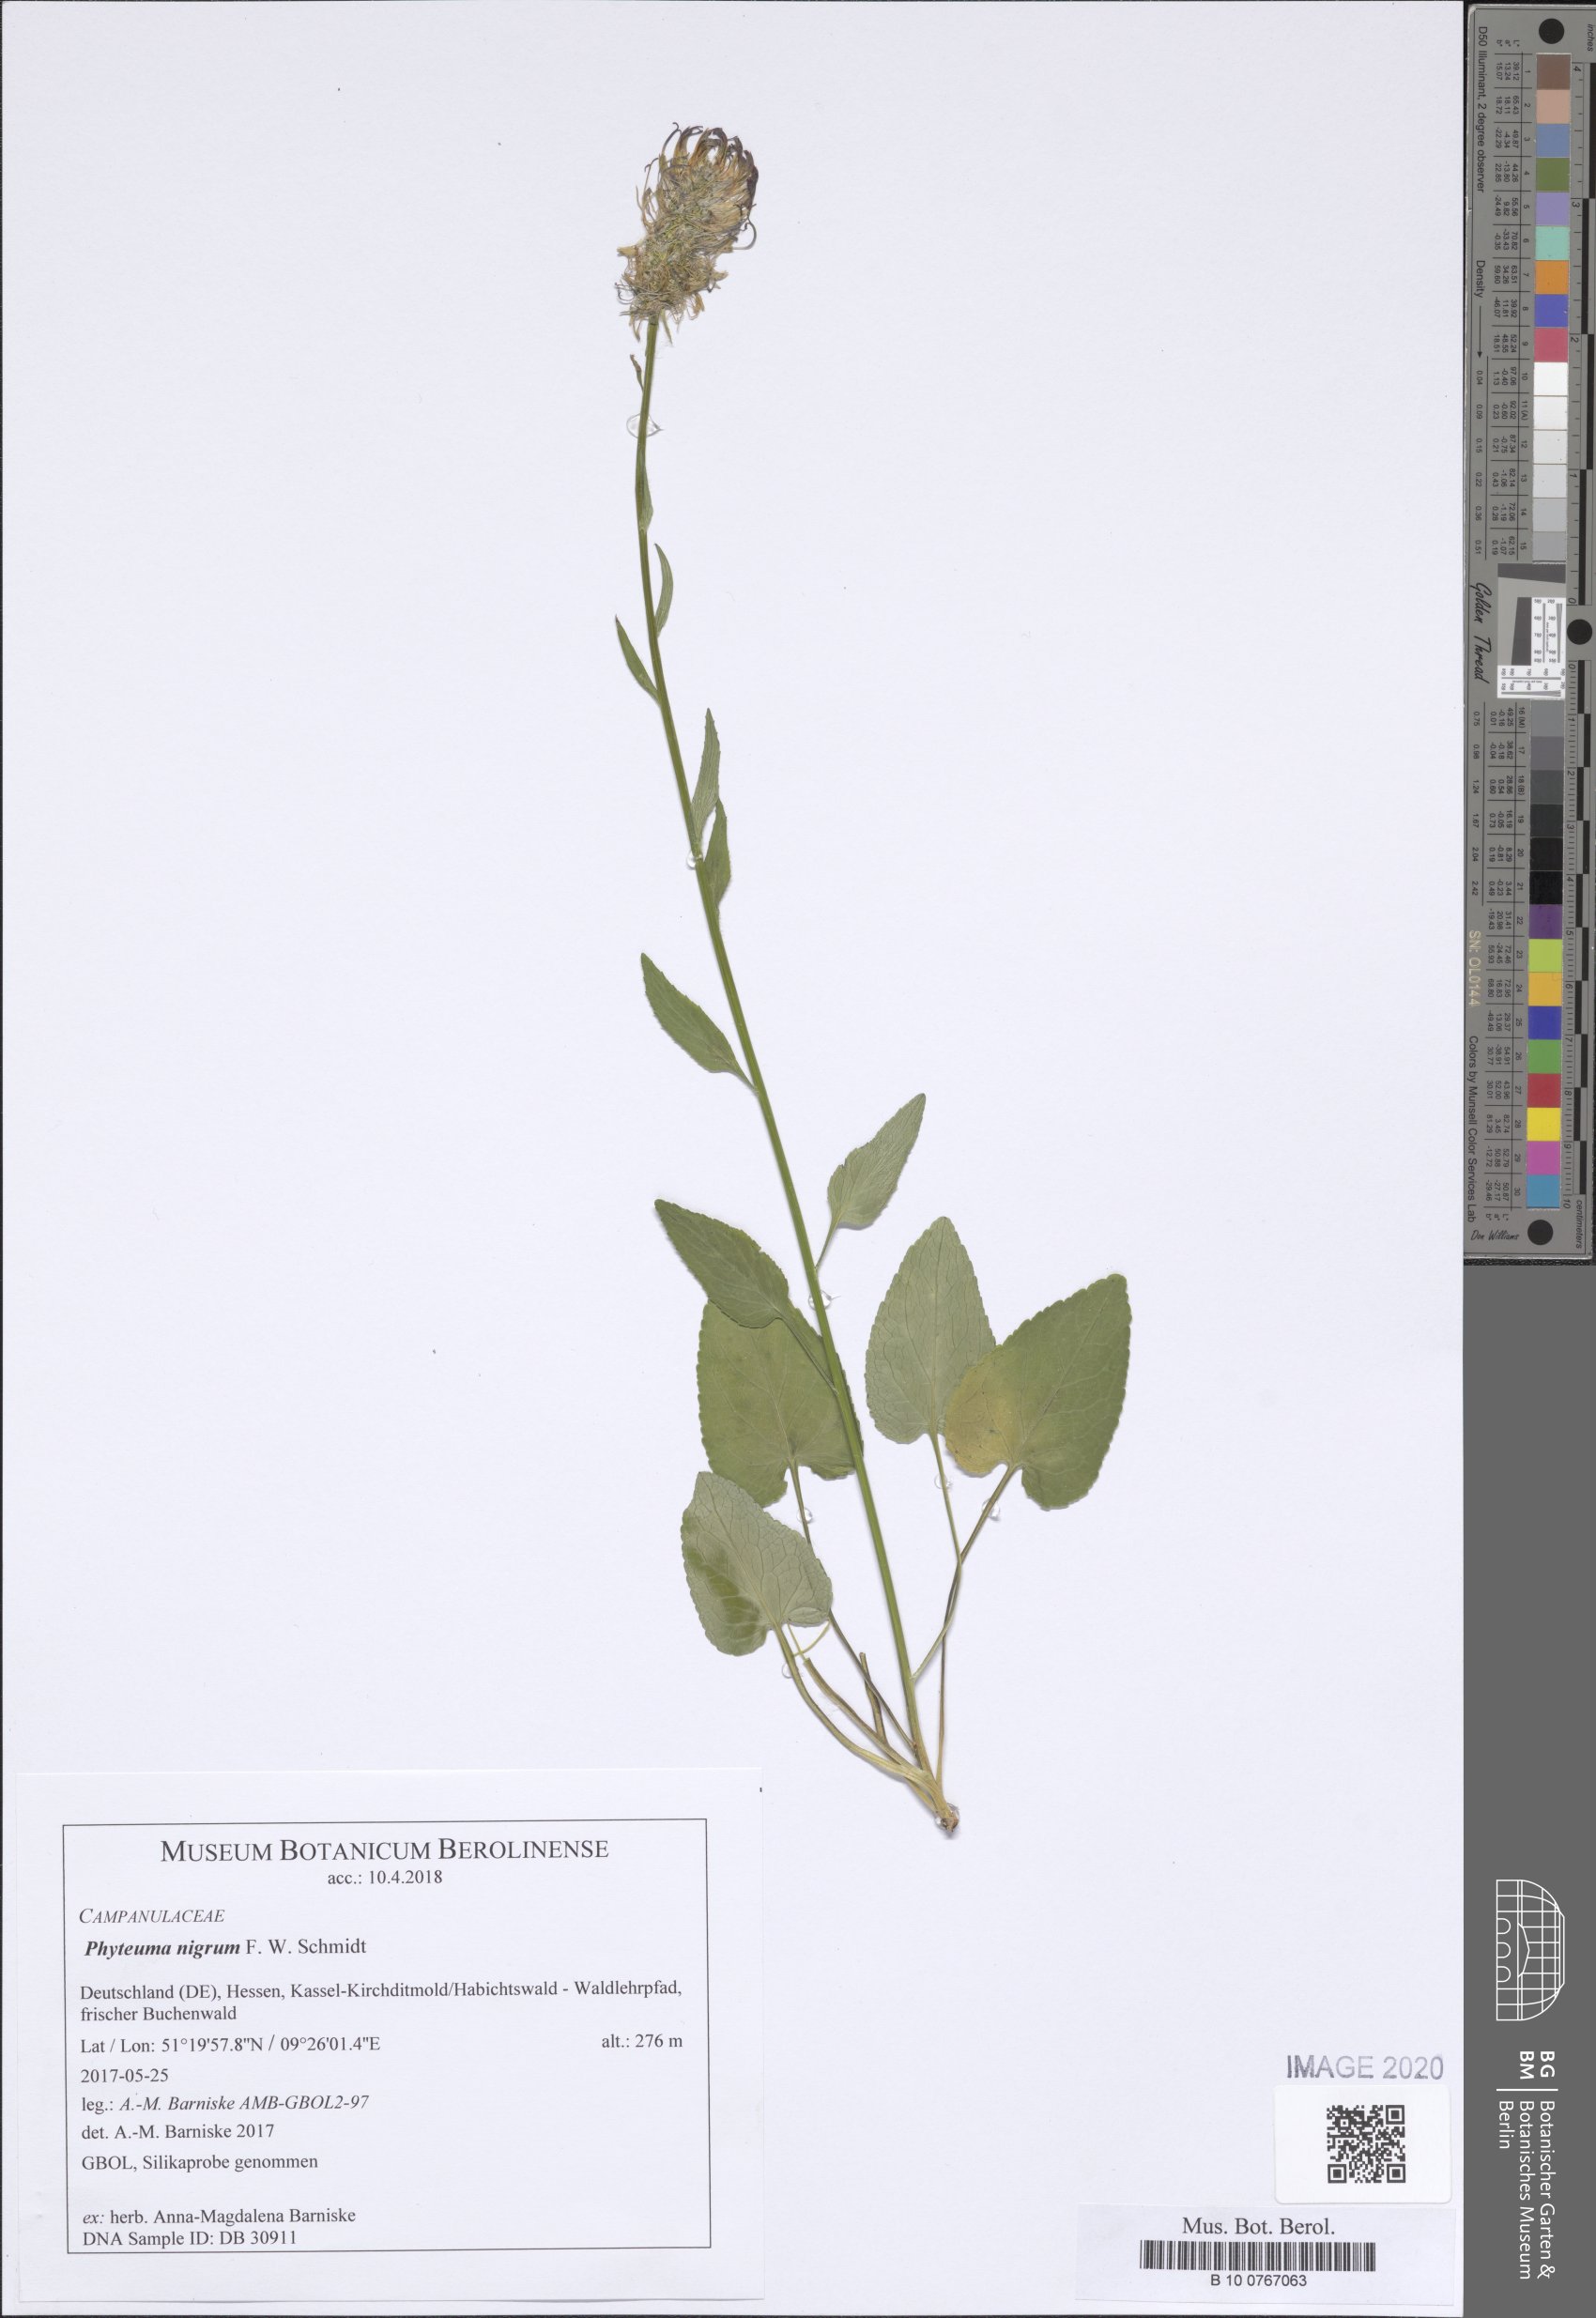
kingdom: Plantae
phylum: Tracheophyta
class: Magnoliopsida
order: Asterales
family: Campanulaceae
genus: Phyteuma
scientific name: Phyteuma nigrum
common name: Black rampion
